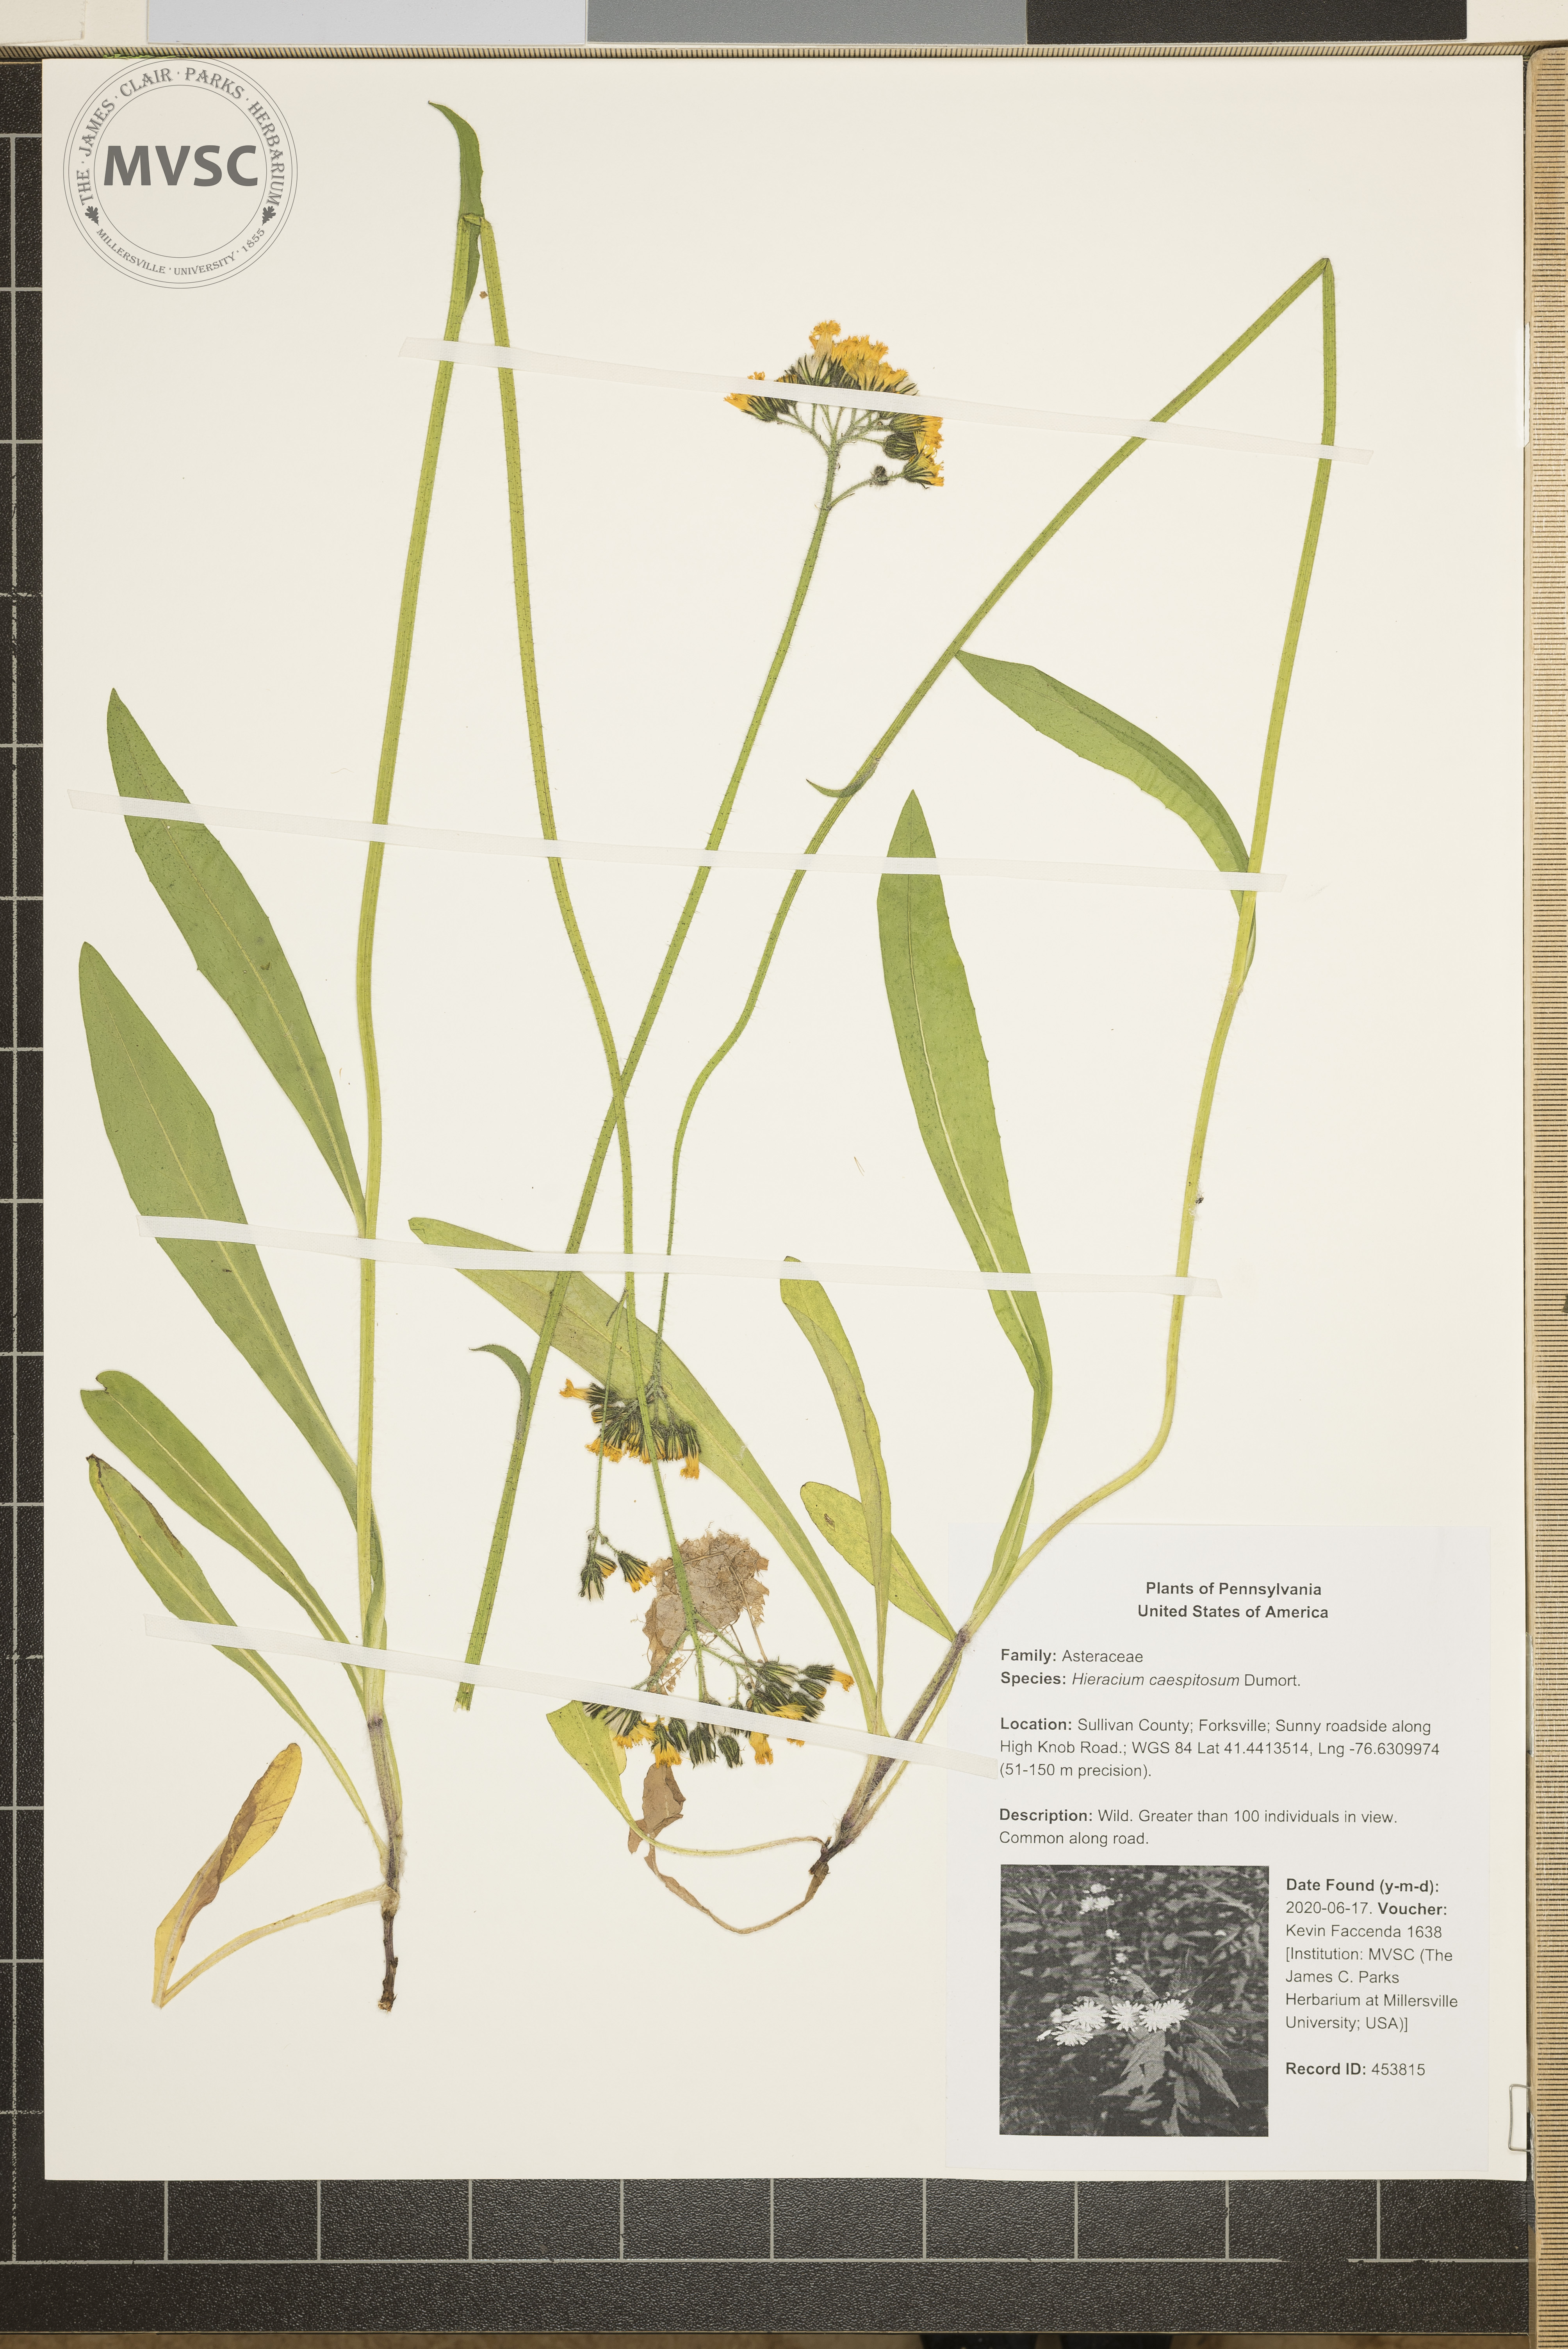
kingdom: Plantae
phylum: Tracheophyta
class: Magnoliopsida
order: Asterales
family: Asteraceae
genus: Pilosella
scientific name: Pilosella caespitosa
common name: Yellow fox-and-cubs
